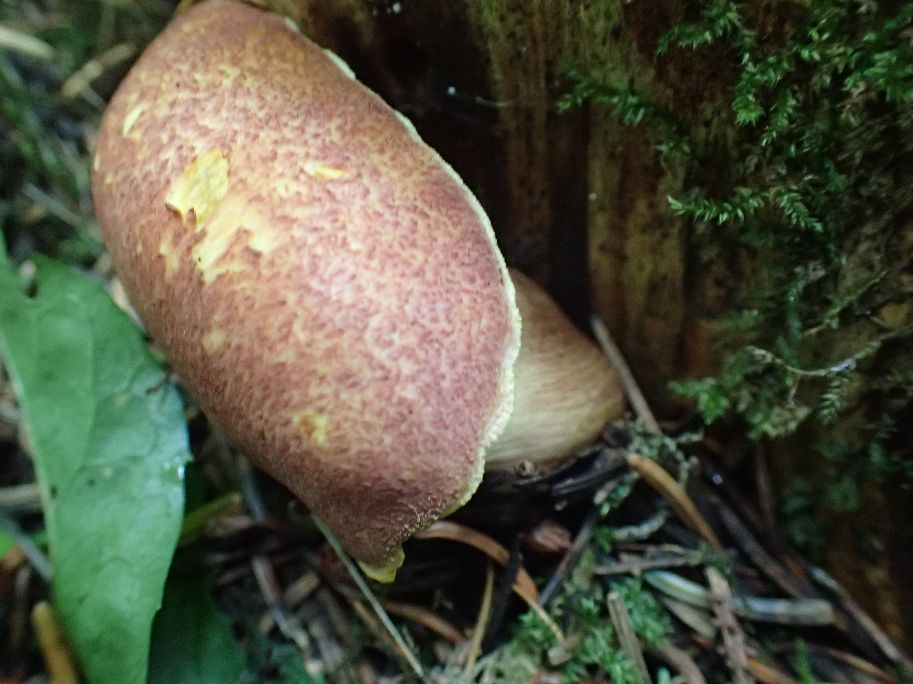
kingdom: Fungi
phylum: Basidiomycota
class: Agaricomycetes
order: Agaricales
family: Tricholomataceae
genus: Tricholomopsis
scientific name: Tricholomopsis rutilans
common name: purpur-væbnerhat
